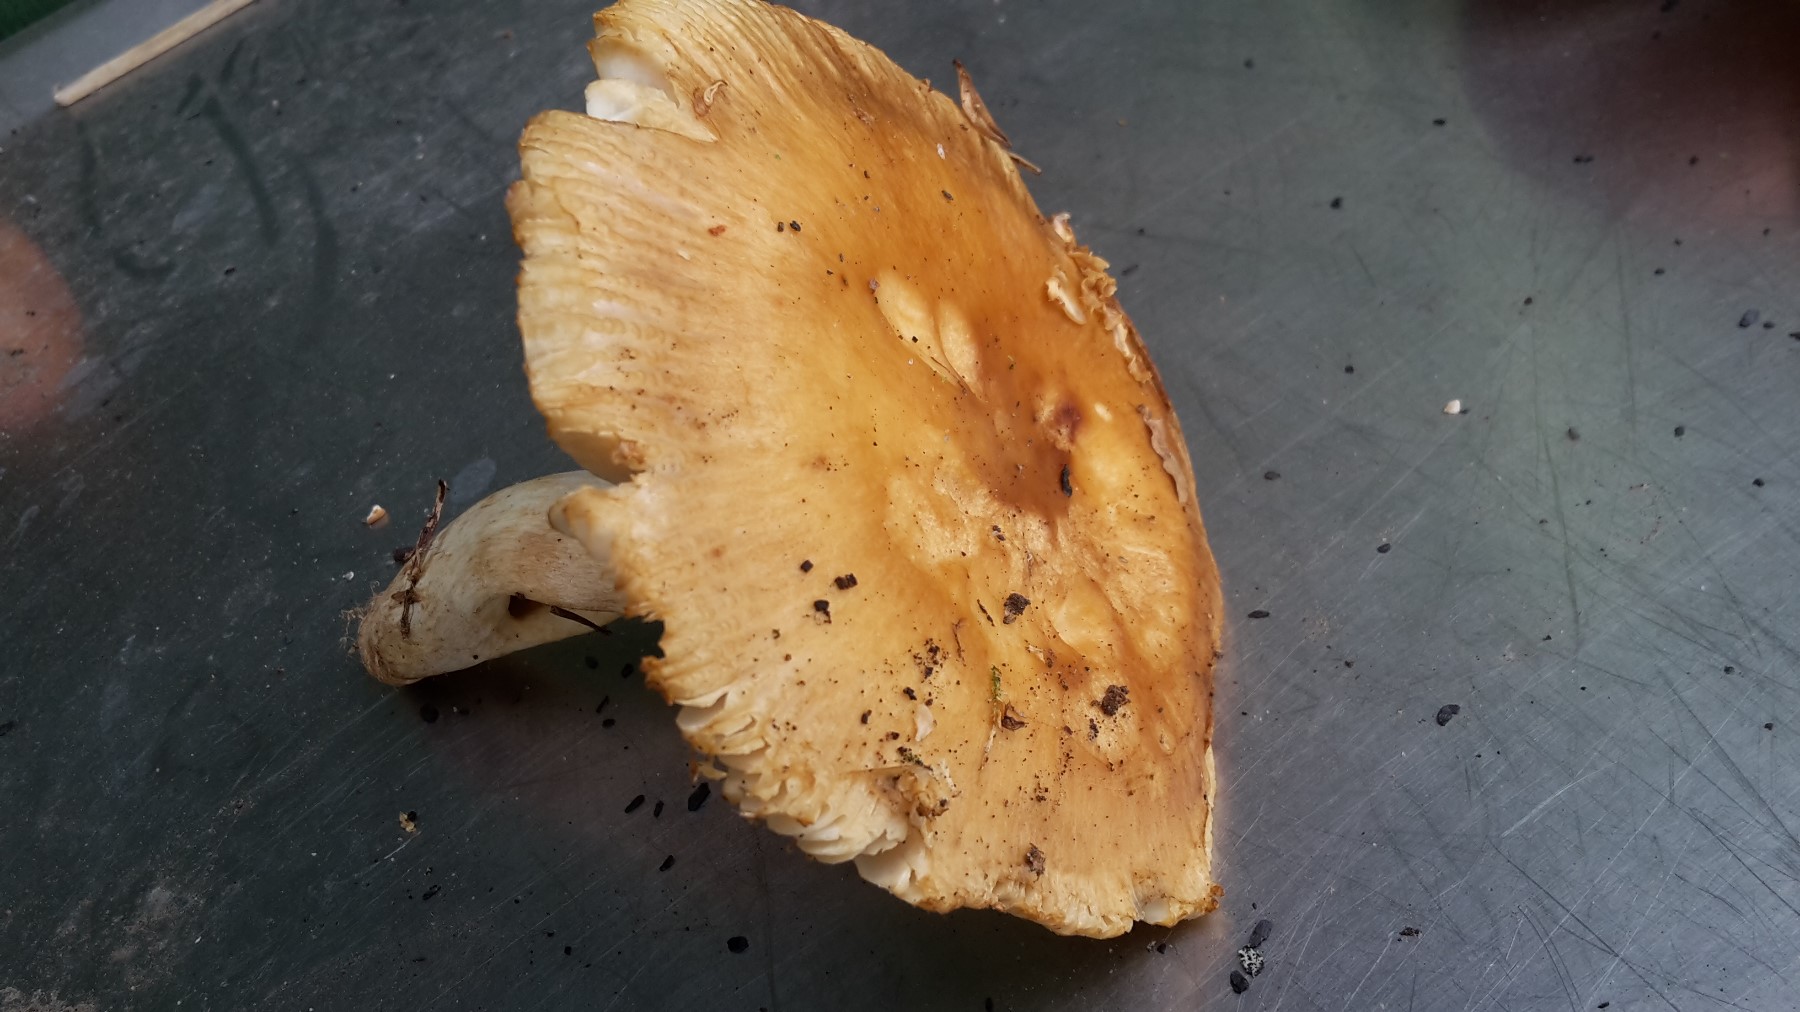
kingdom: Fungi
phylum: Basidiomycota
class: Agaricomycetes
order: Russulales
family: Russulaceae
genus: Russula
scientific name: Russula foetens
